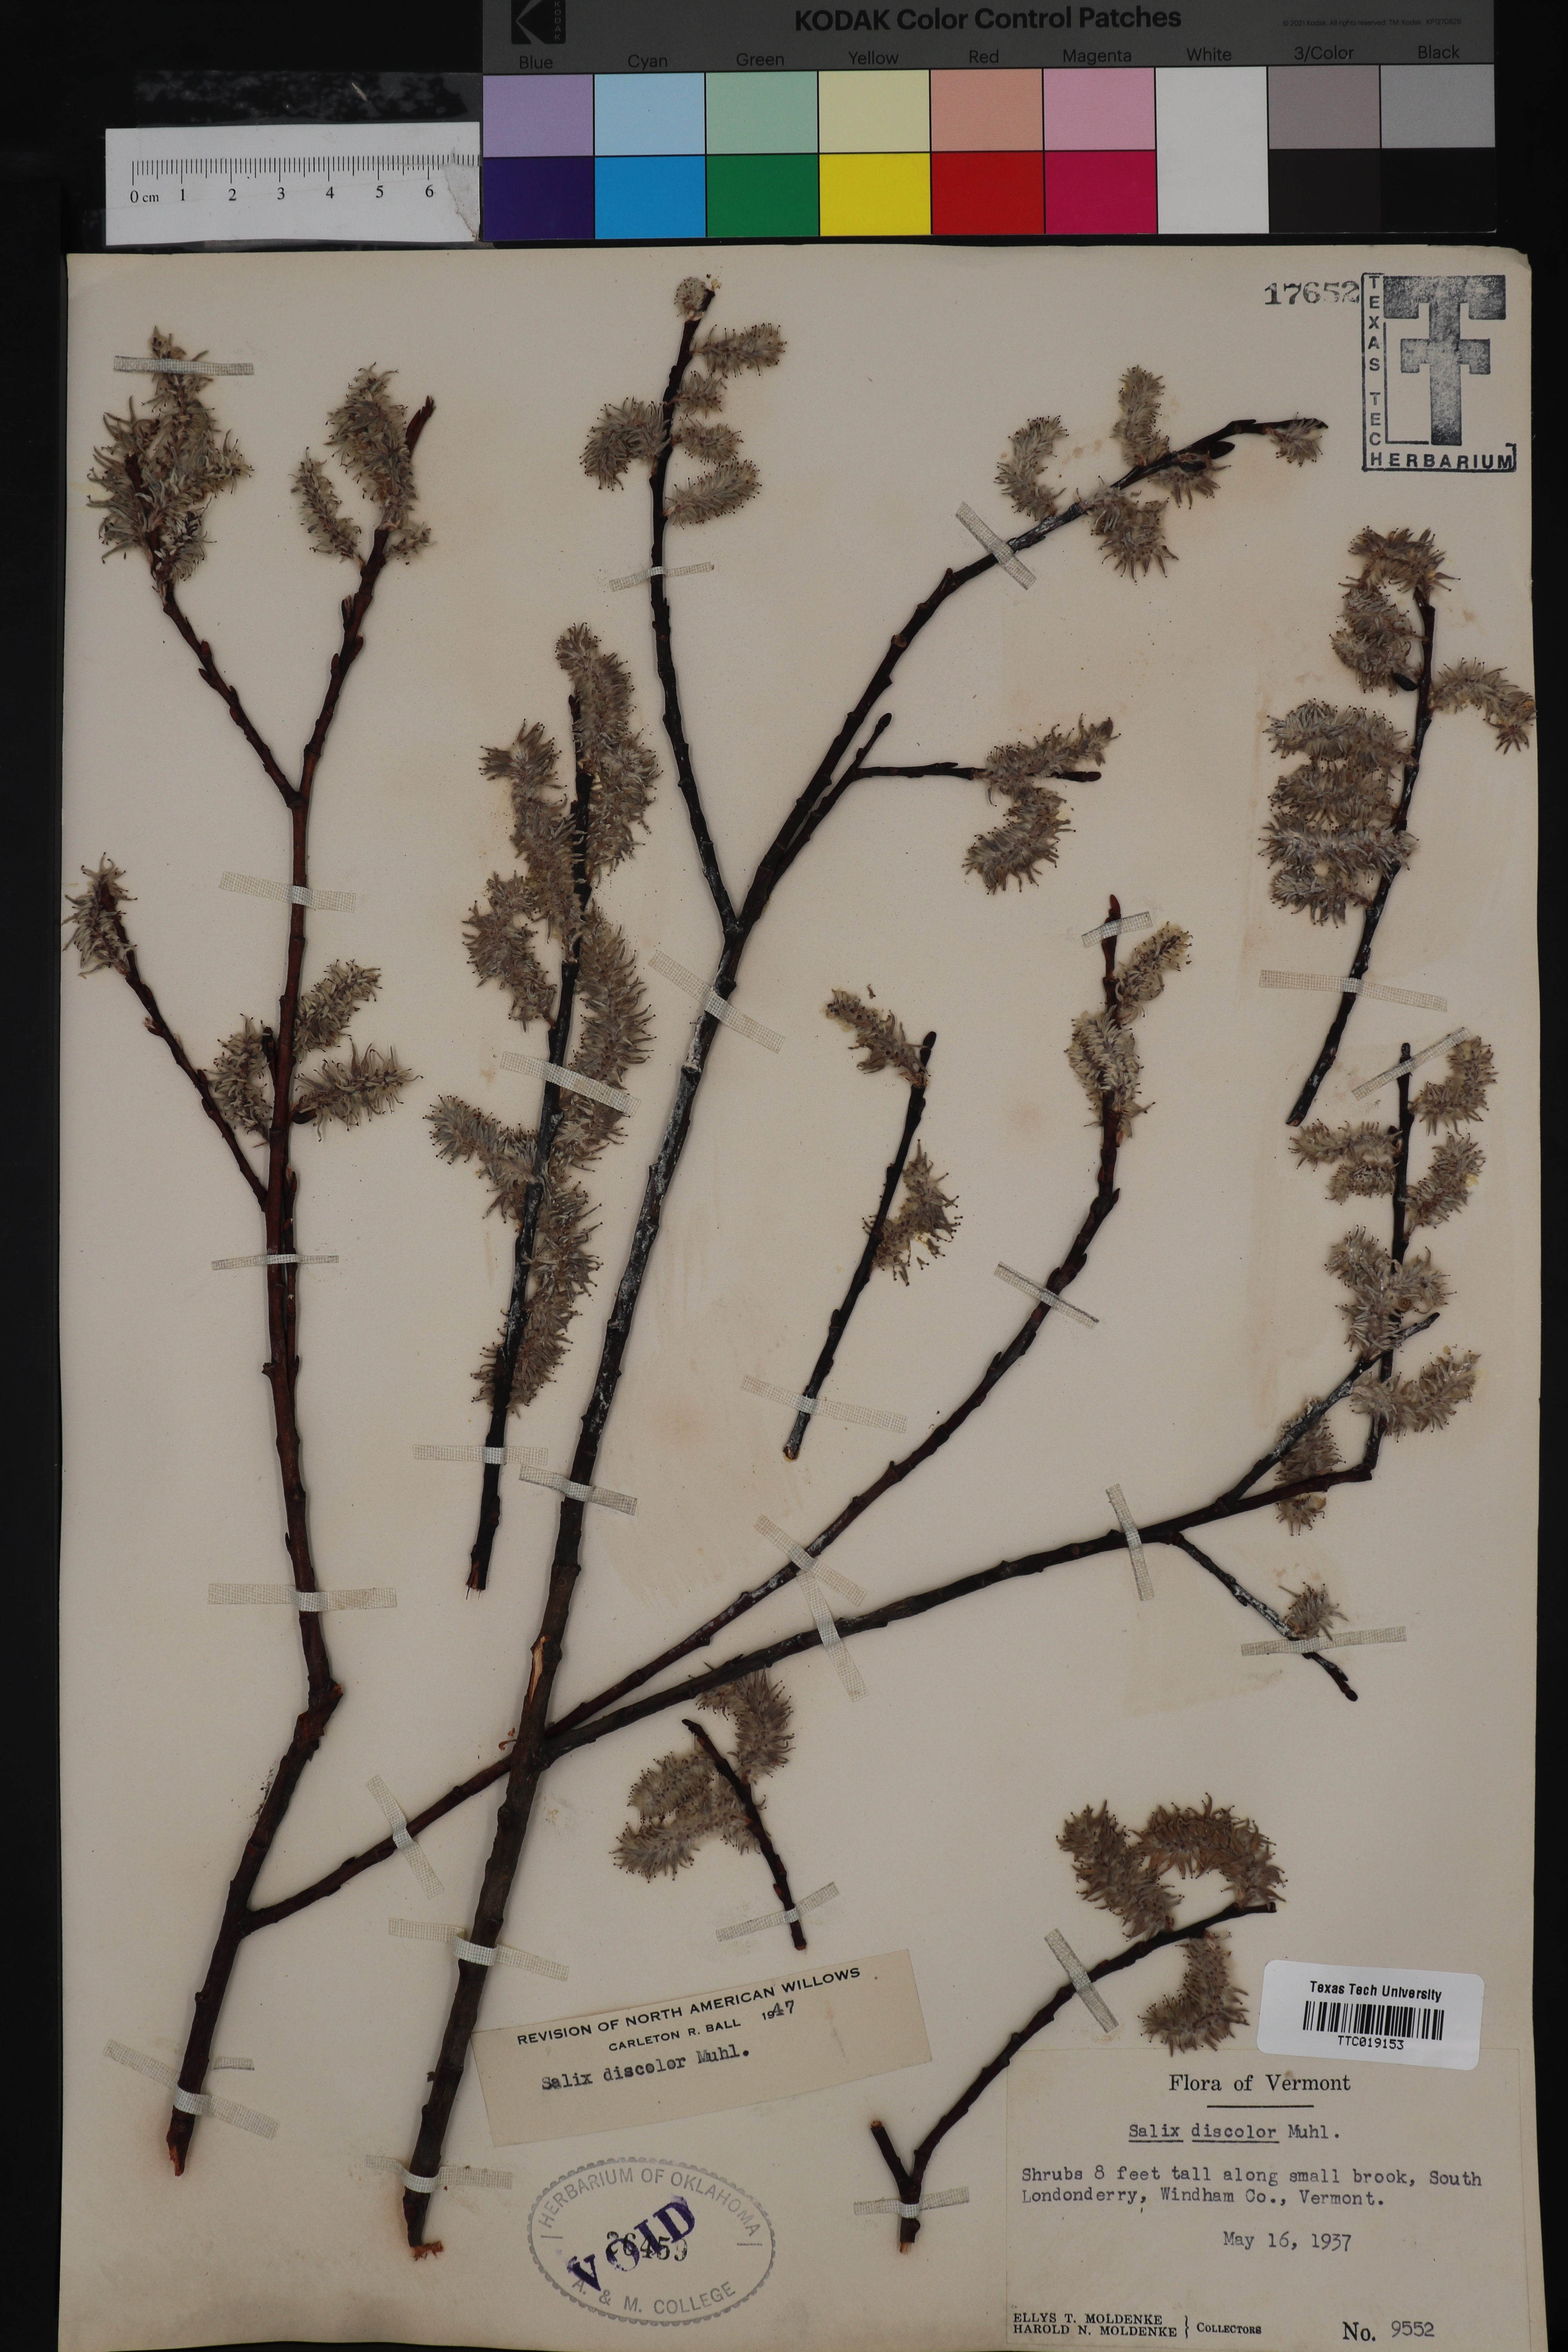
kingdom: Plantae
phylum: Tracheophyta
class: Magnoliopsida
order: Malpighiales
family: Salicaceae
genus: Salix
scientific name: Salix discolor
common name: Glaucous willow
